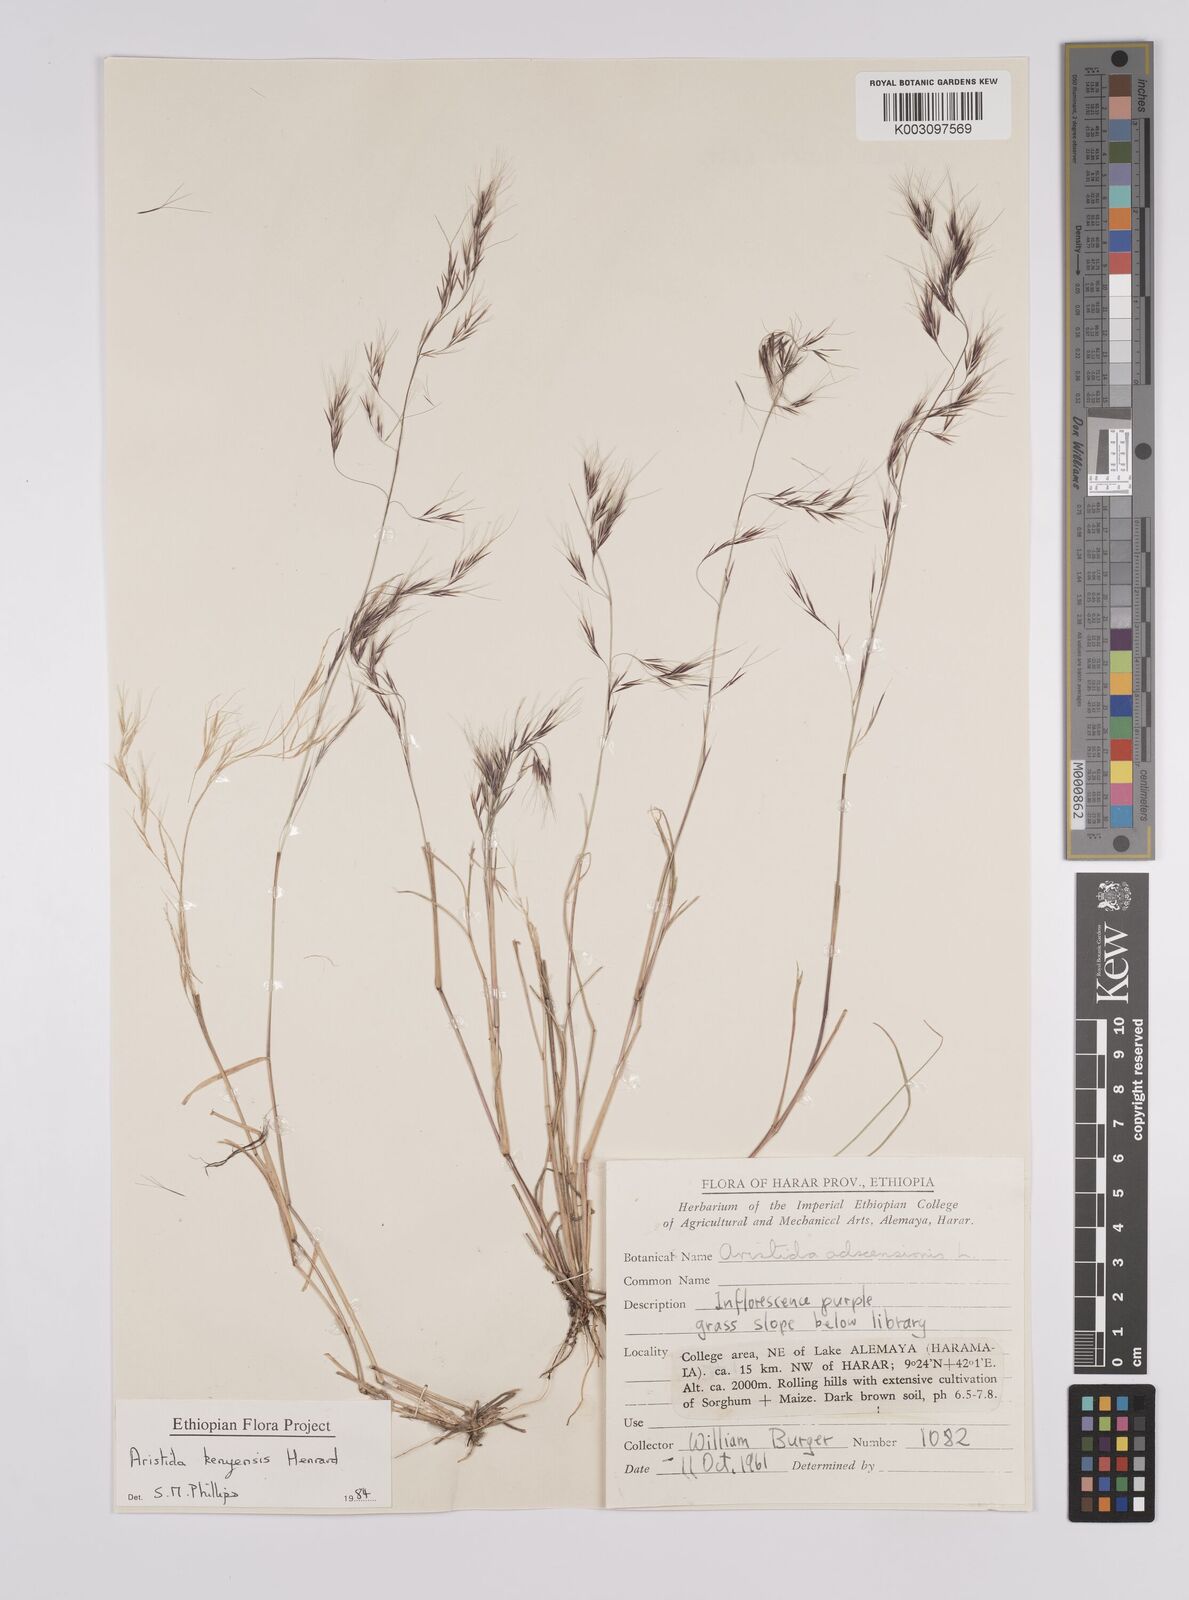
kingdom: Plantae
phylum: Tracheophyta
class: Liliopsida
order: Poales
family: Poaceae
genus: Aristida
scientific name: Aristida kenyensis
